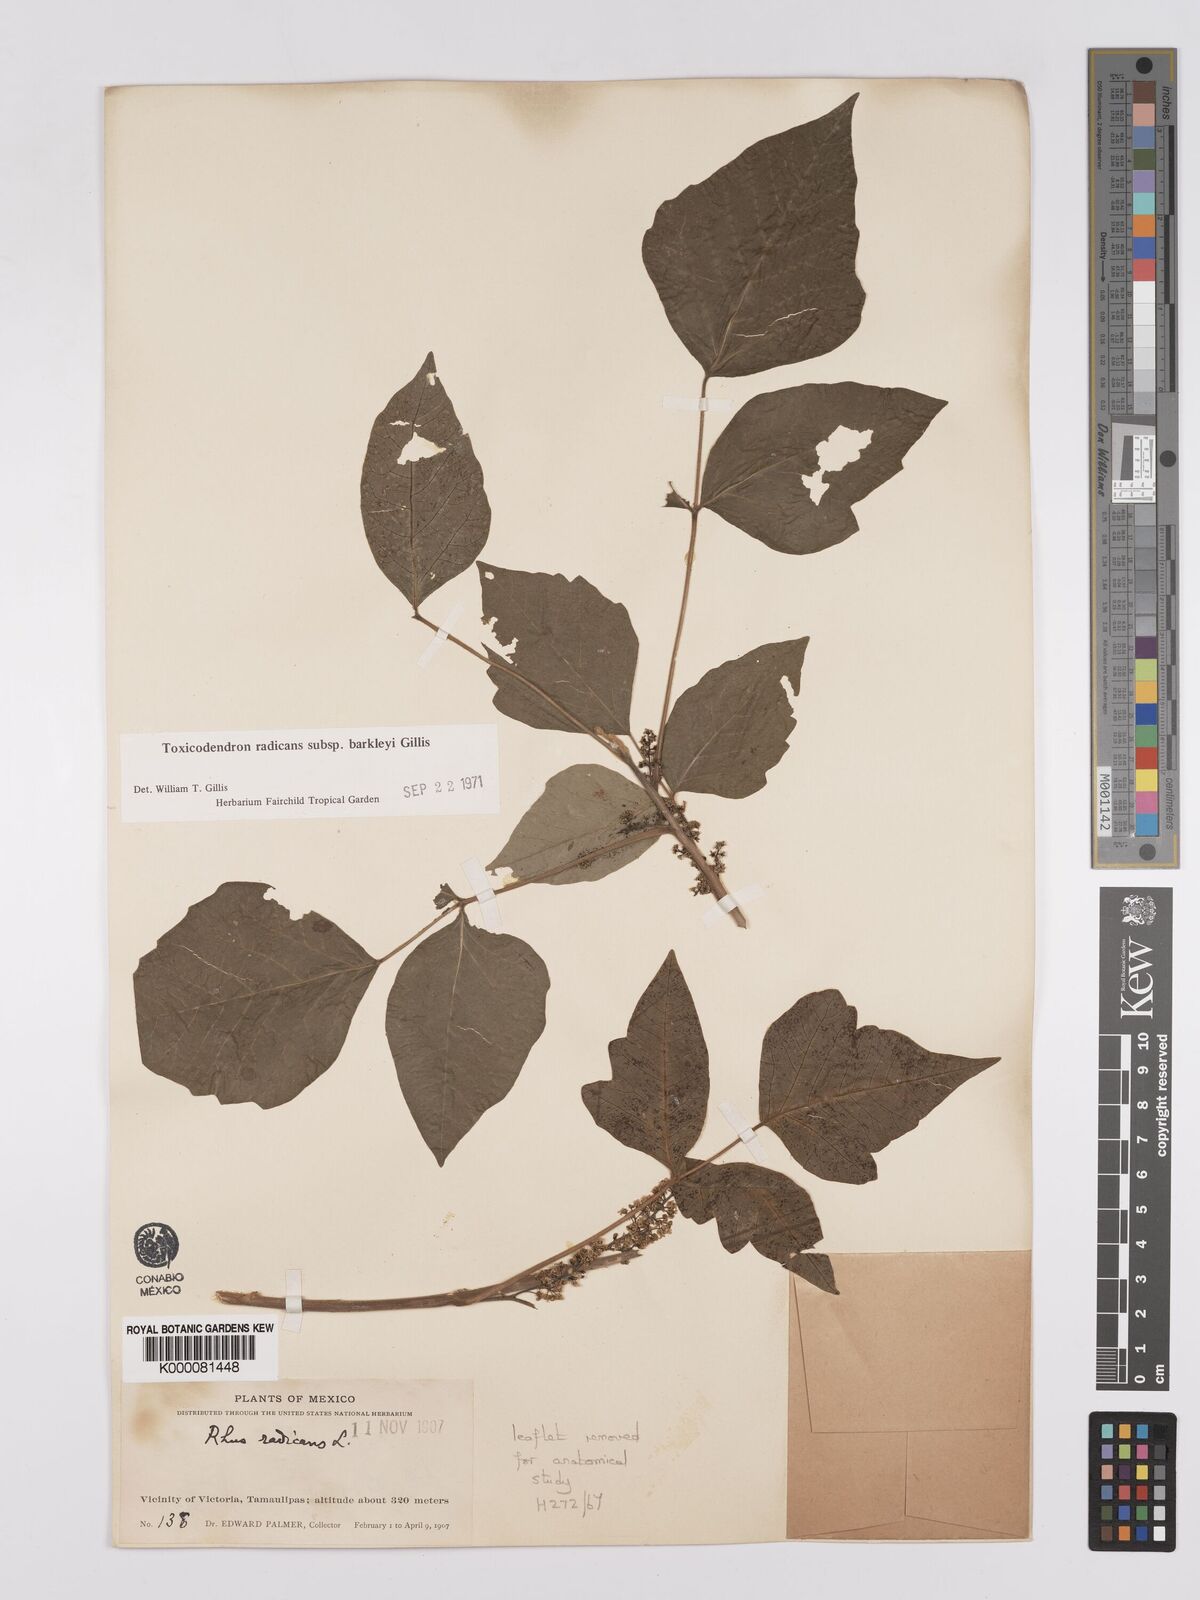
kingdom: Plantae
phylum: Tracheophyta
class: Magnoliopsida
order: Sapindales
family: Anacardiaceae
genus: Toxicodendron
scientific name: Toxicodendron radicans
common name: Poison ivy
